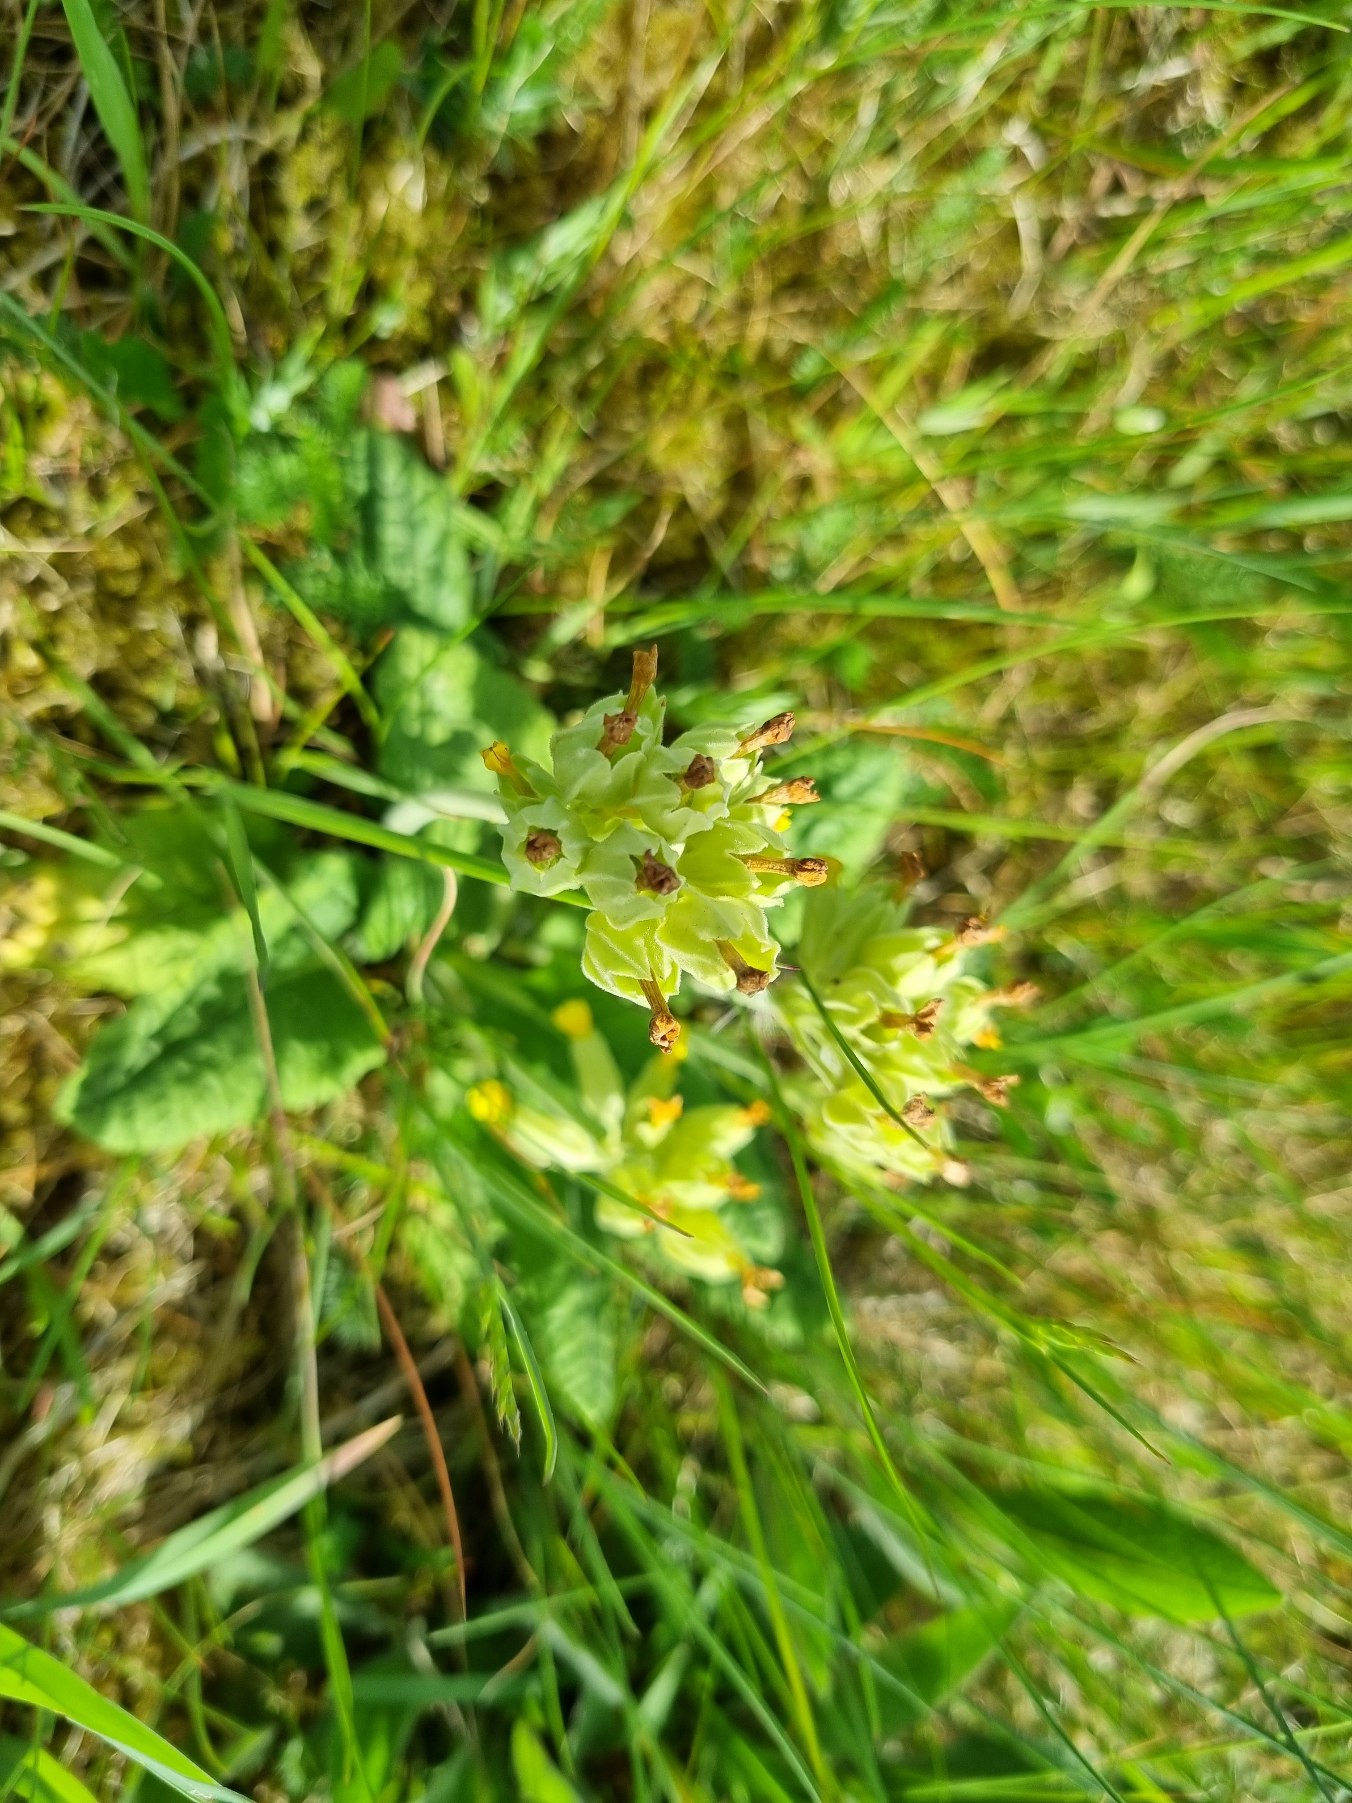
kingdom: Plantae
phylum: Tracheophyta
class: Magnoliopsida
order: Ericales
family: Primulaceae
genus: Primula
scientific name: Primula veris
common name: Hulkravet kodriver
